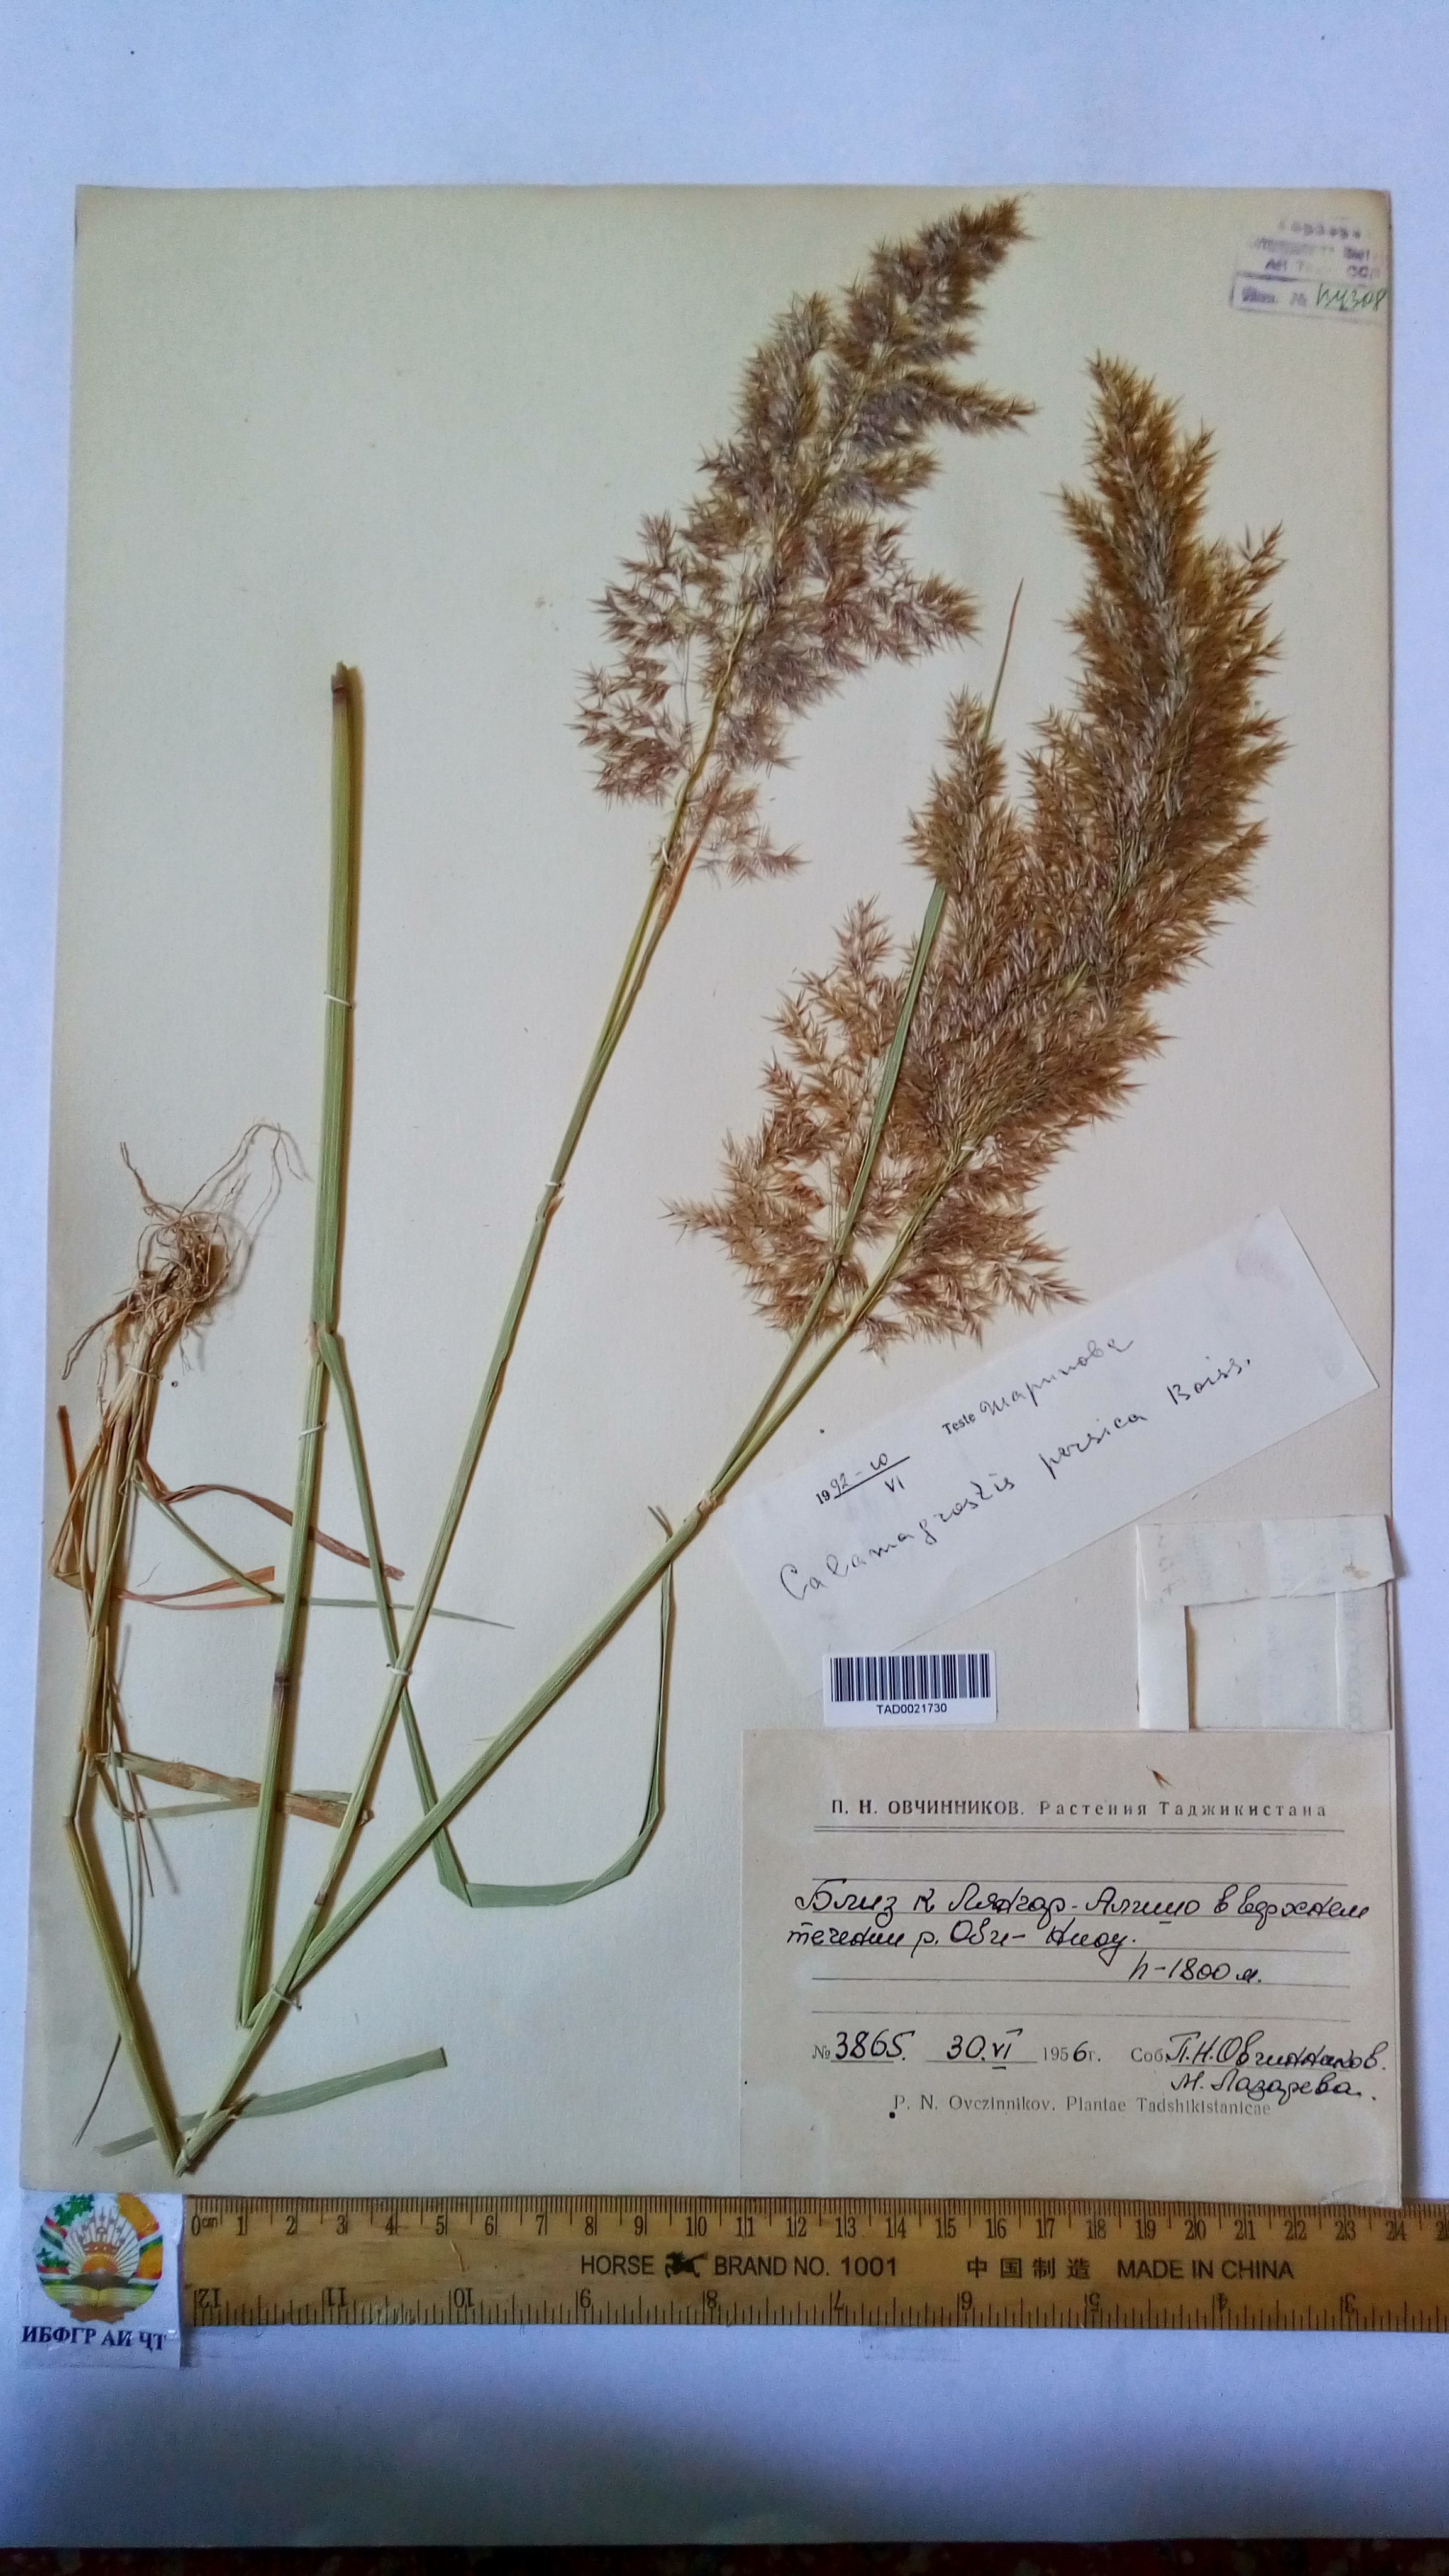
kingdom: Plantae
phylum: Tracheophyta
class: Liliopsida
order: Poales
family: Poaceae
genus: Calamagrostis
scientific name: Calamagrostis pseudophragmites
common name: Coastal small-reed
